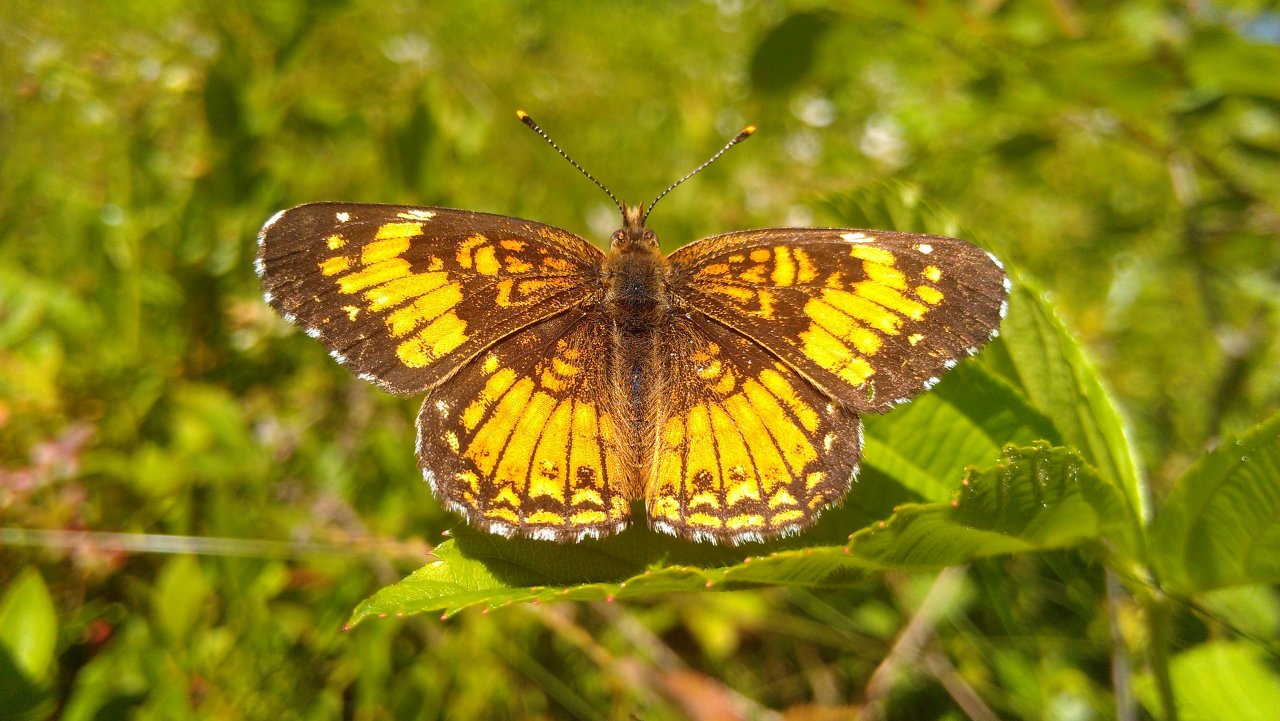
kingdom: Animalia
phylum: Arthropoda
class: Insecta
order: Lepidoptera
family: Nymphalidae
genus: Chlosyne
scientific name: Chlosyne harrisii
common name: Harris's Checkerspot
